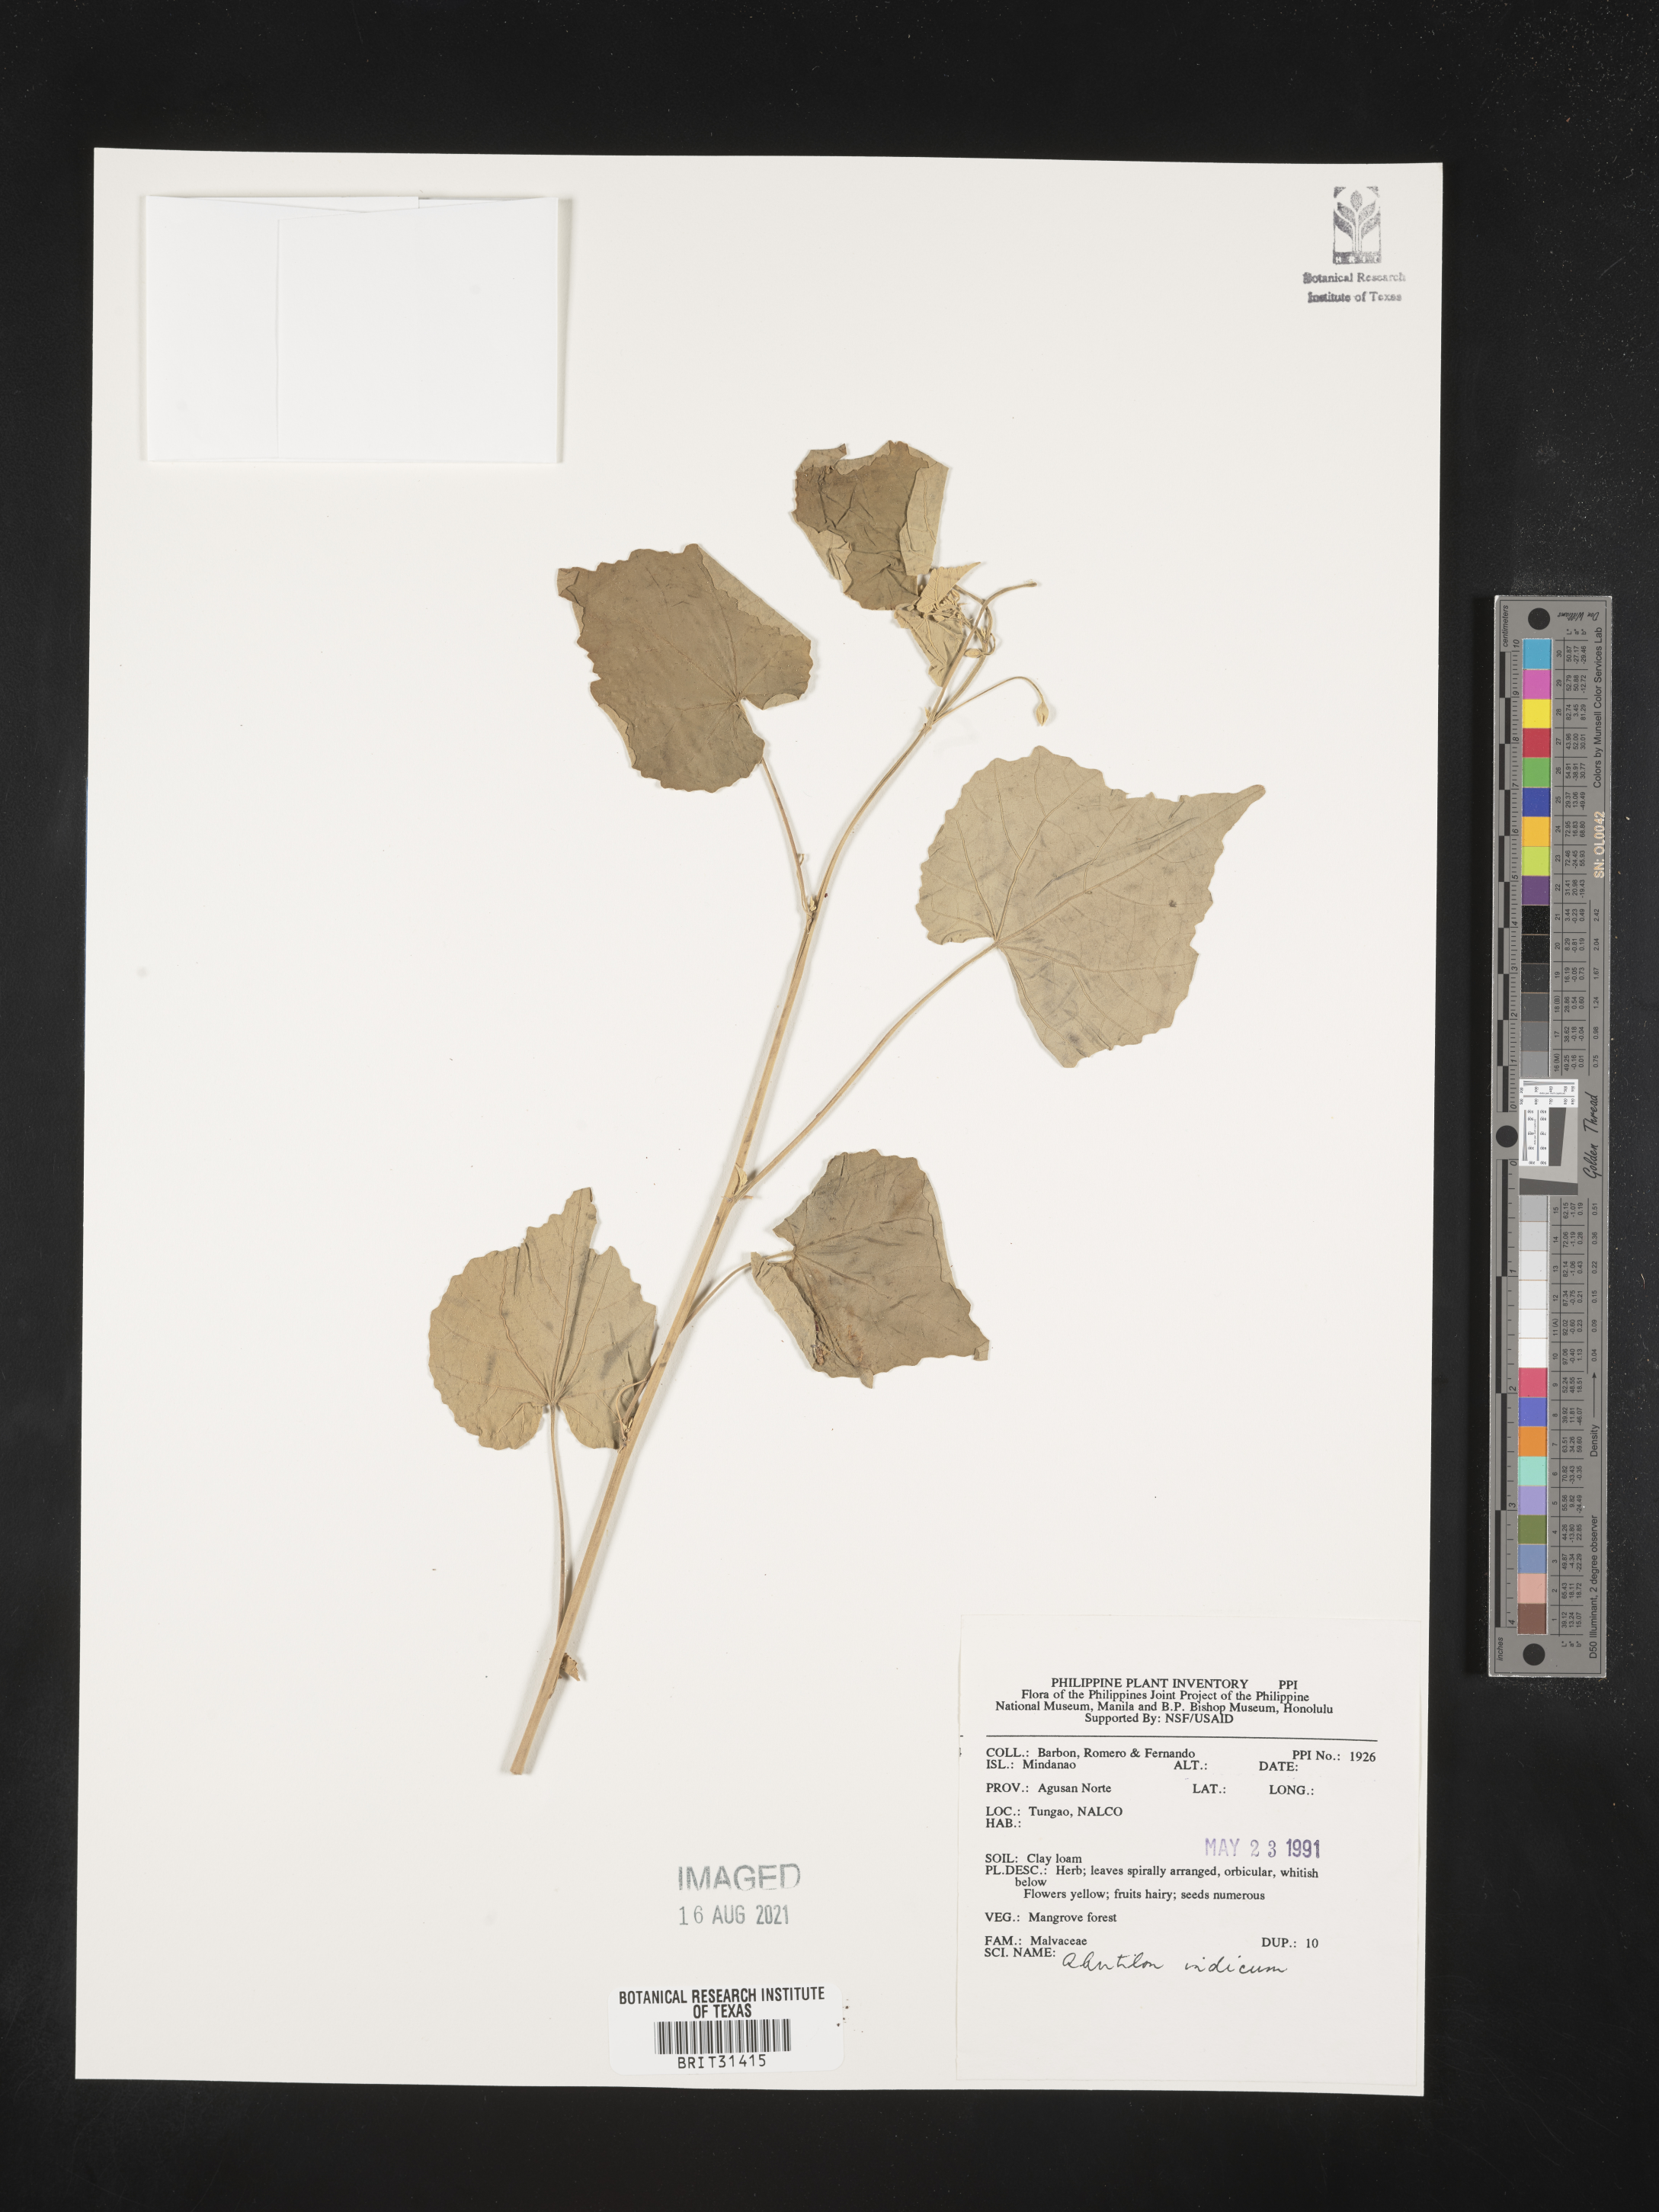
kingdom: Plantae
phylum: Tracheophyta
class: Magnoliopsida
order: Malvales
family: Malvaceae
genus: Abutilon
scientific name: Abutilon indicum
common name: Indian abutilon
